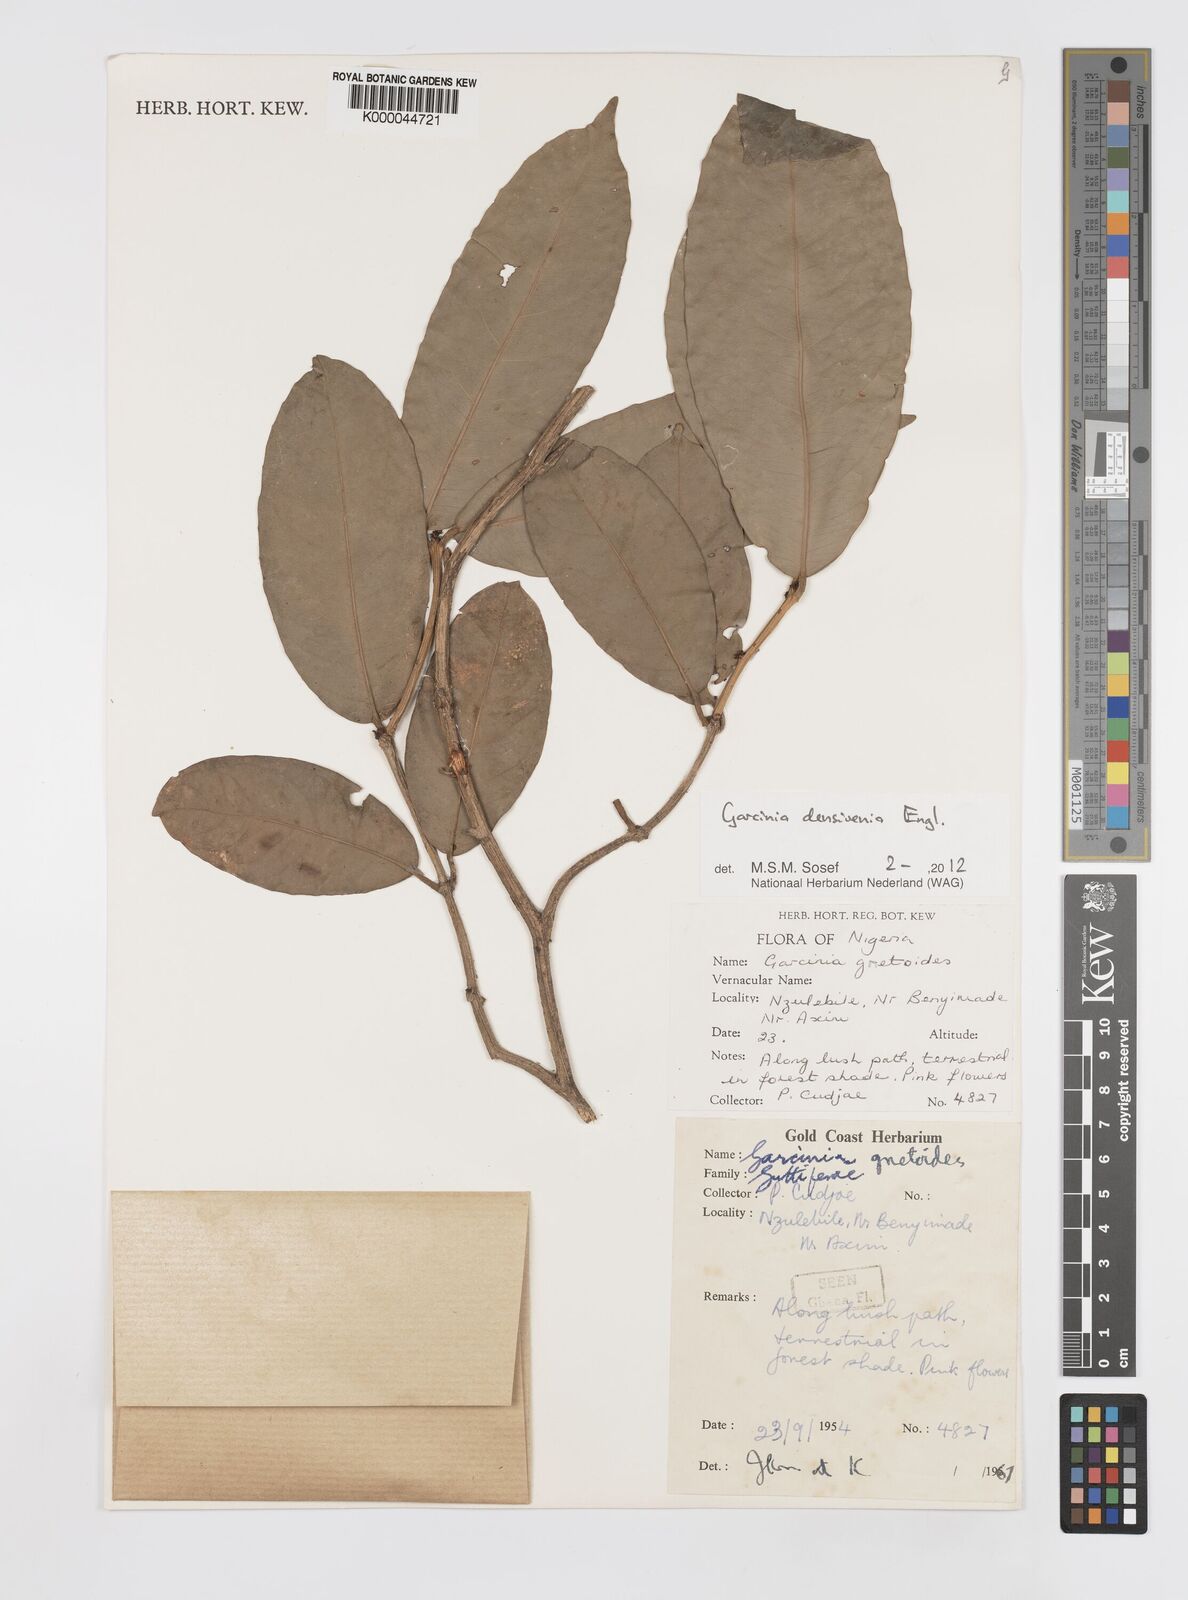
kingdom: Plantae
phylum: Tracheophyta
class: Magnoliopsida
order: Malpighiales
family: Clusiaceae
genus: Garcinia
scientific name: Garcinia gnetoides
